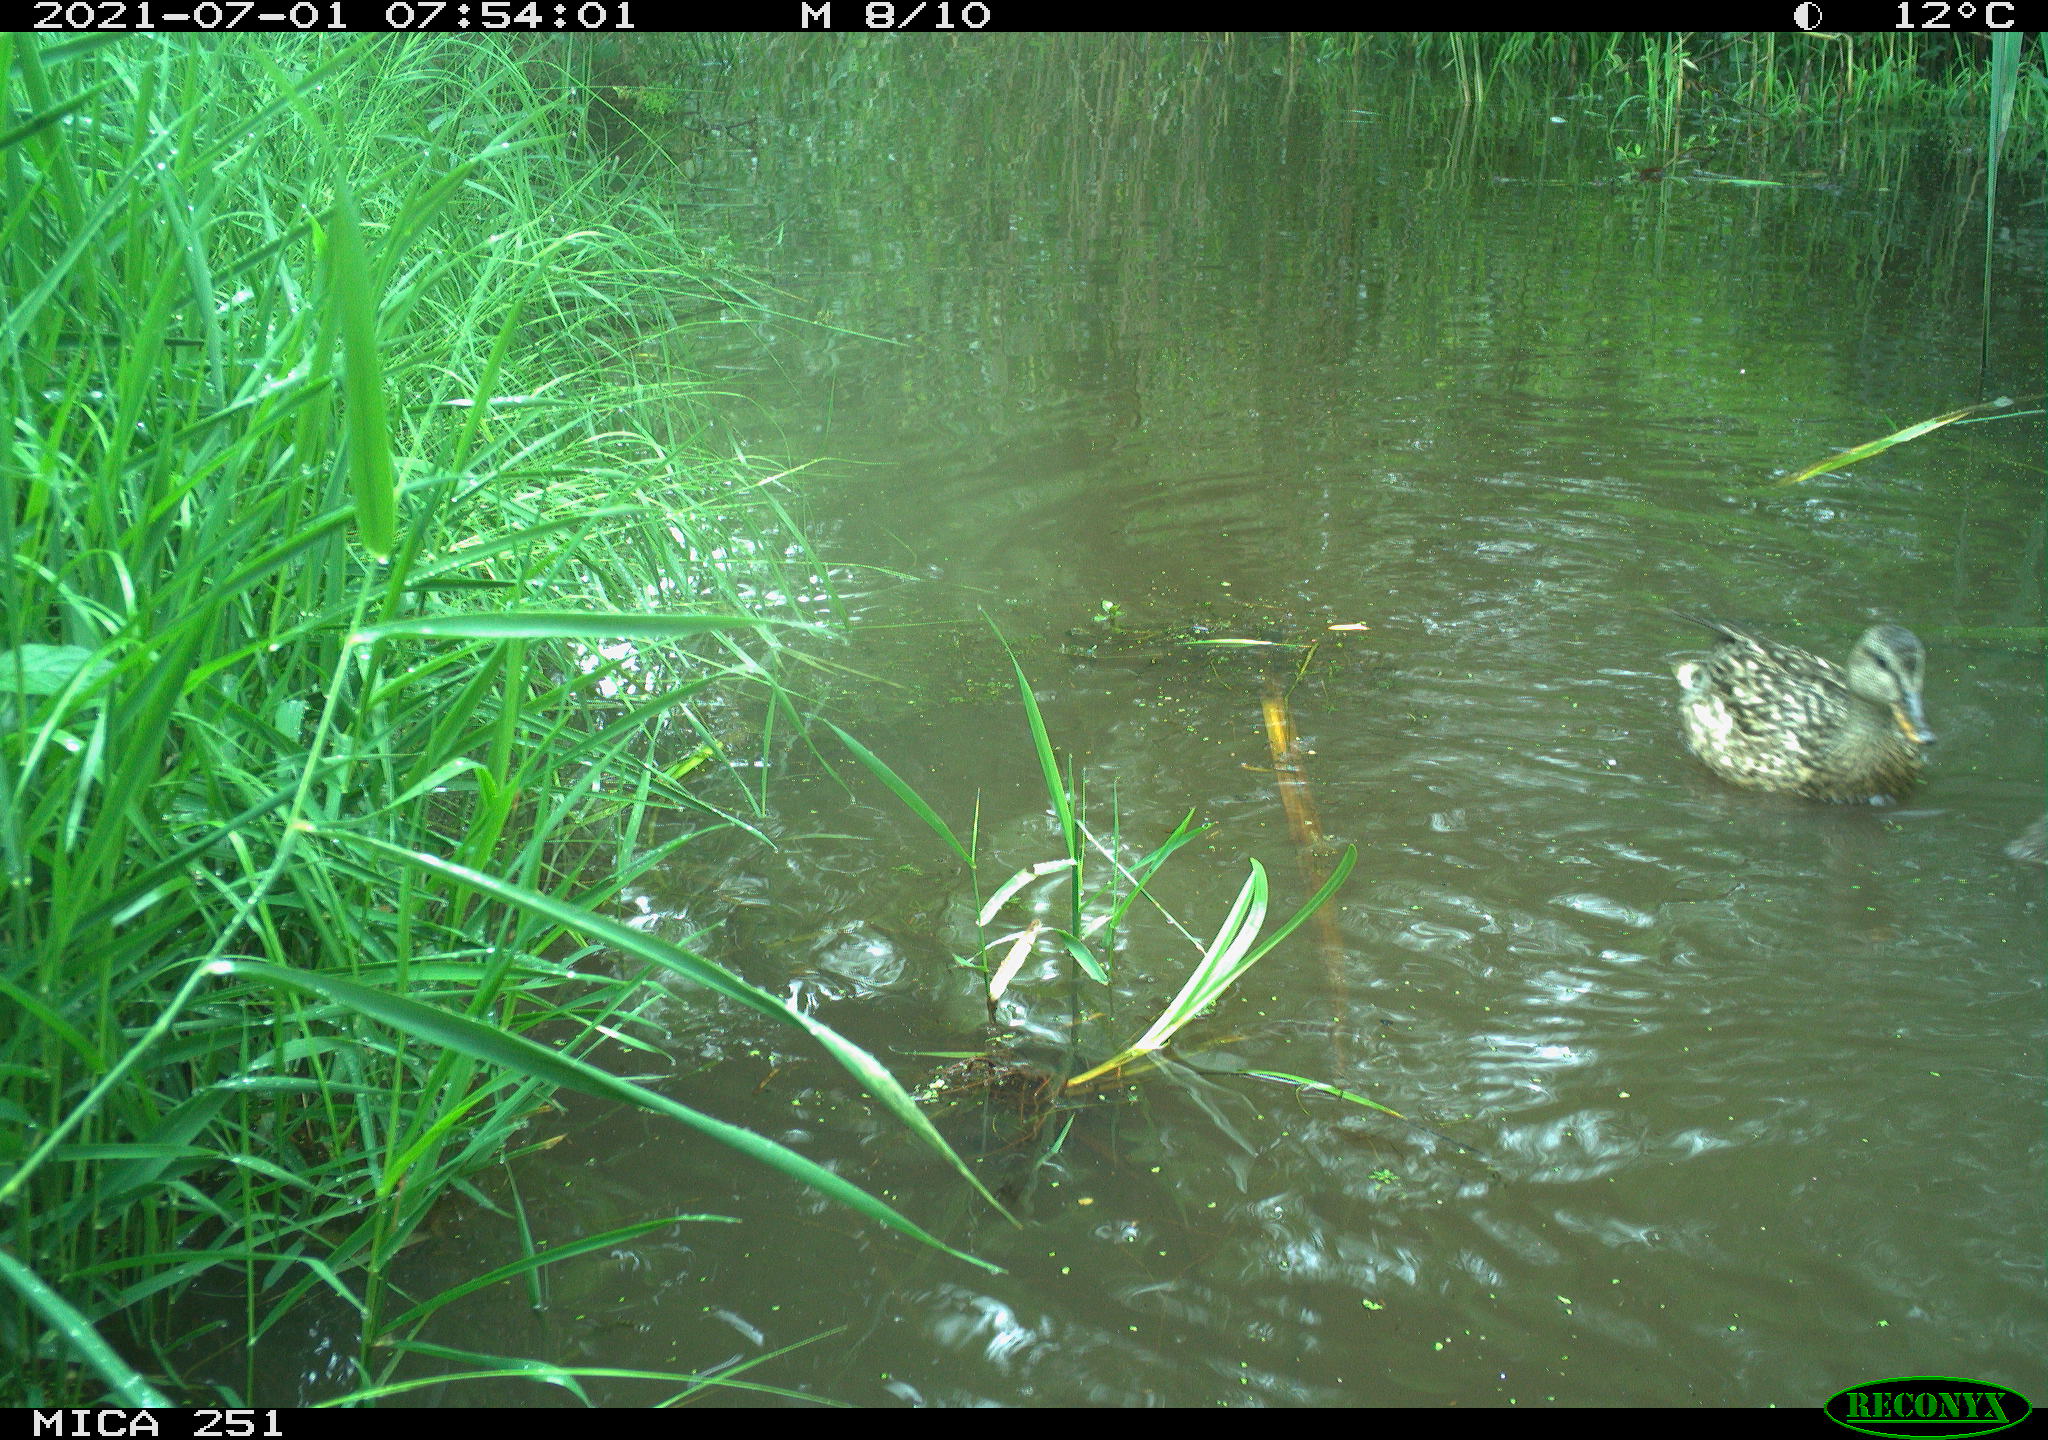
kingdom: Animalia
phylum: Chordata
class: Aves
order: Anseriformes
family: Anatidae
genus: Anas
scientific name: Anas platyrhynchos
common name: Mallard
